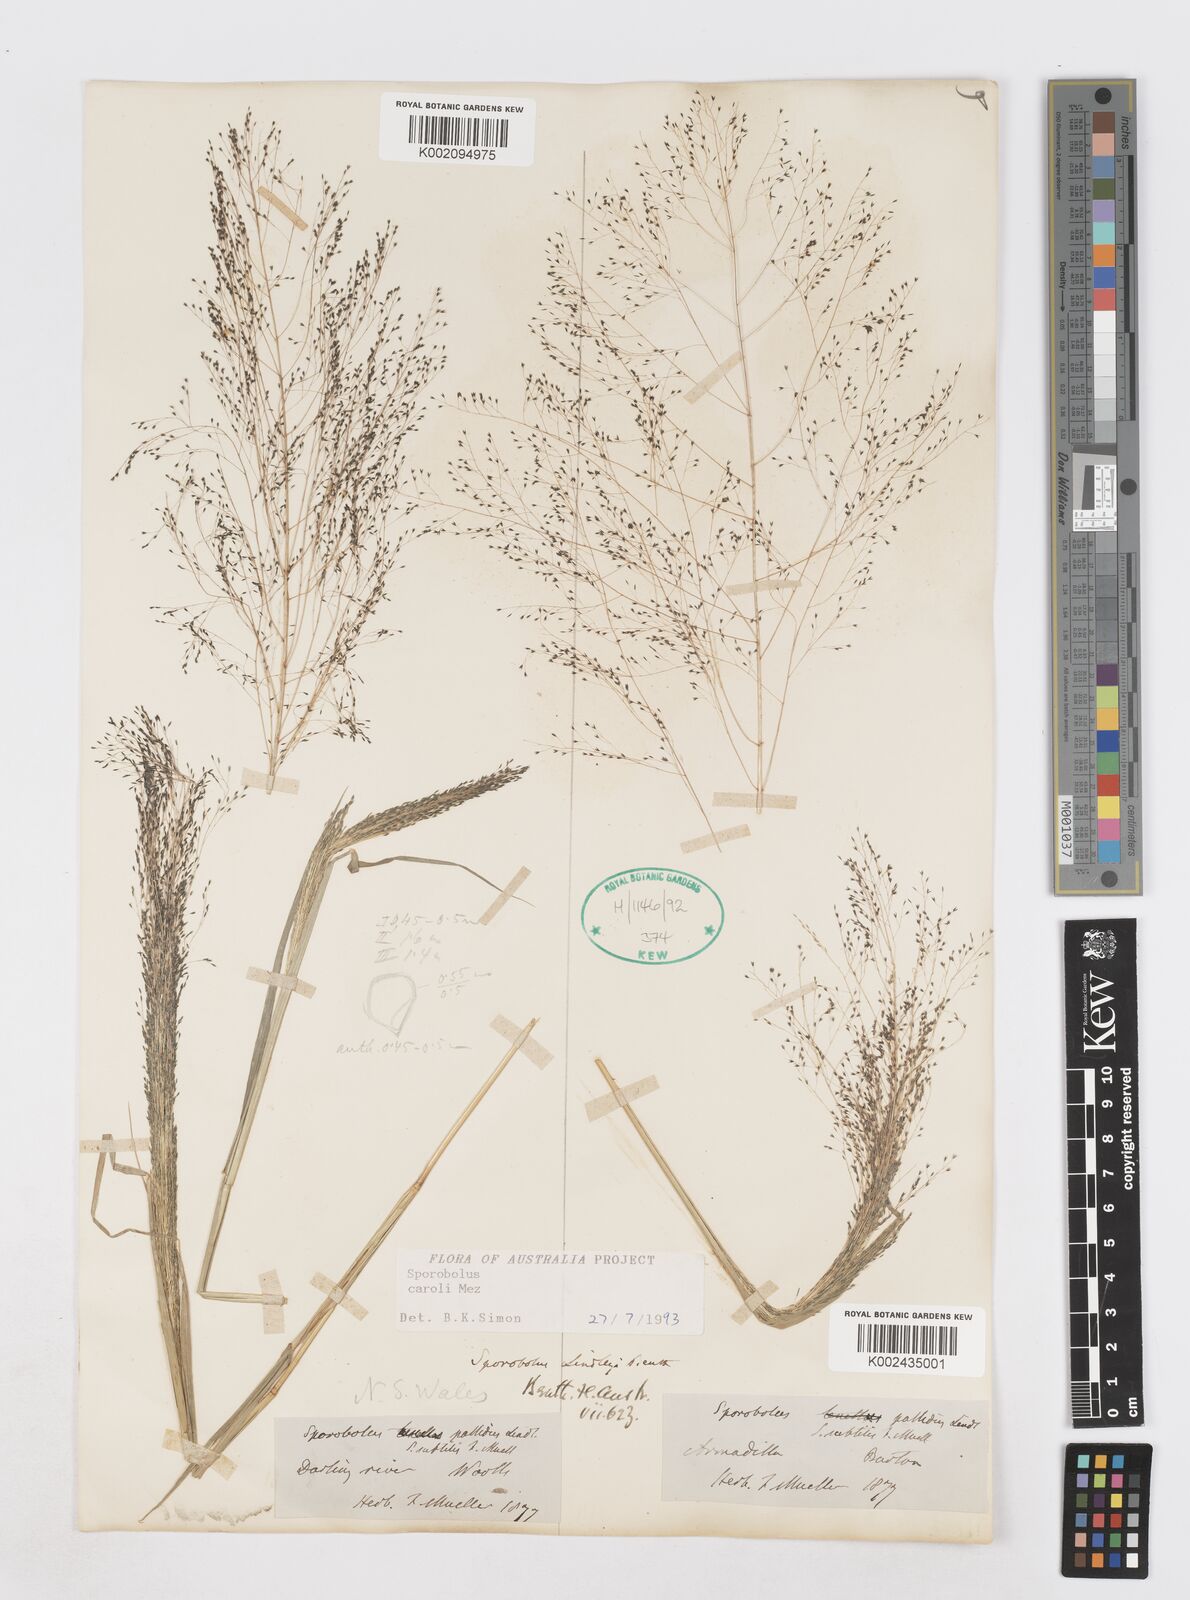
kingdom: Plantae
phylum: Tracheophyta
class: Liliopsida
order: Poales
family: Poaceae
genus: Sporobolus
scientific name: Sporobolus caroli
